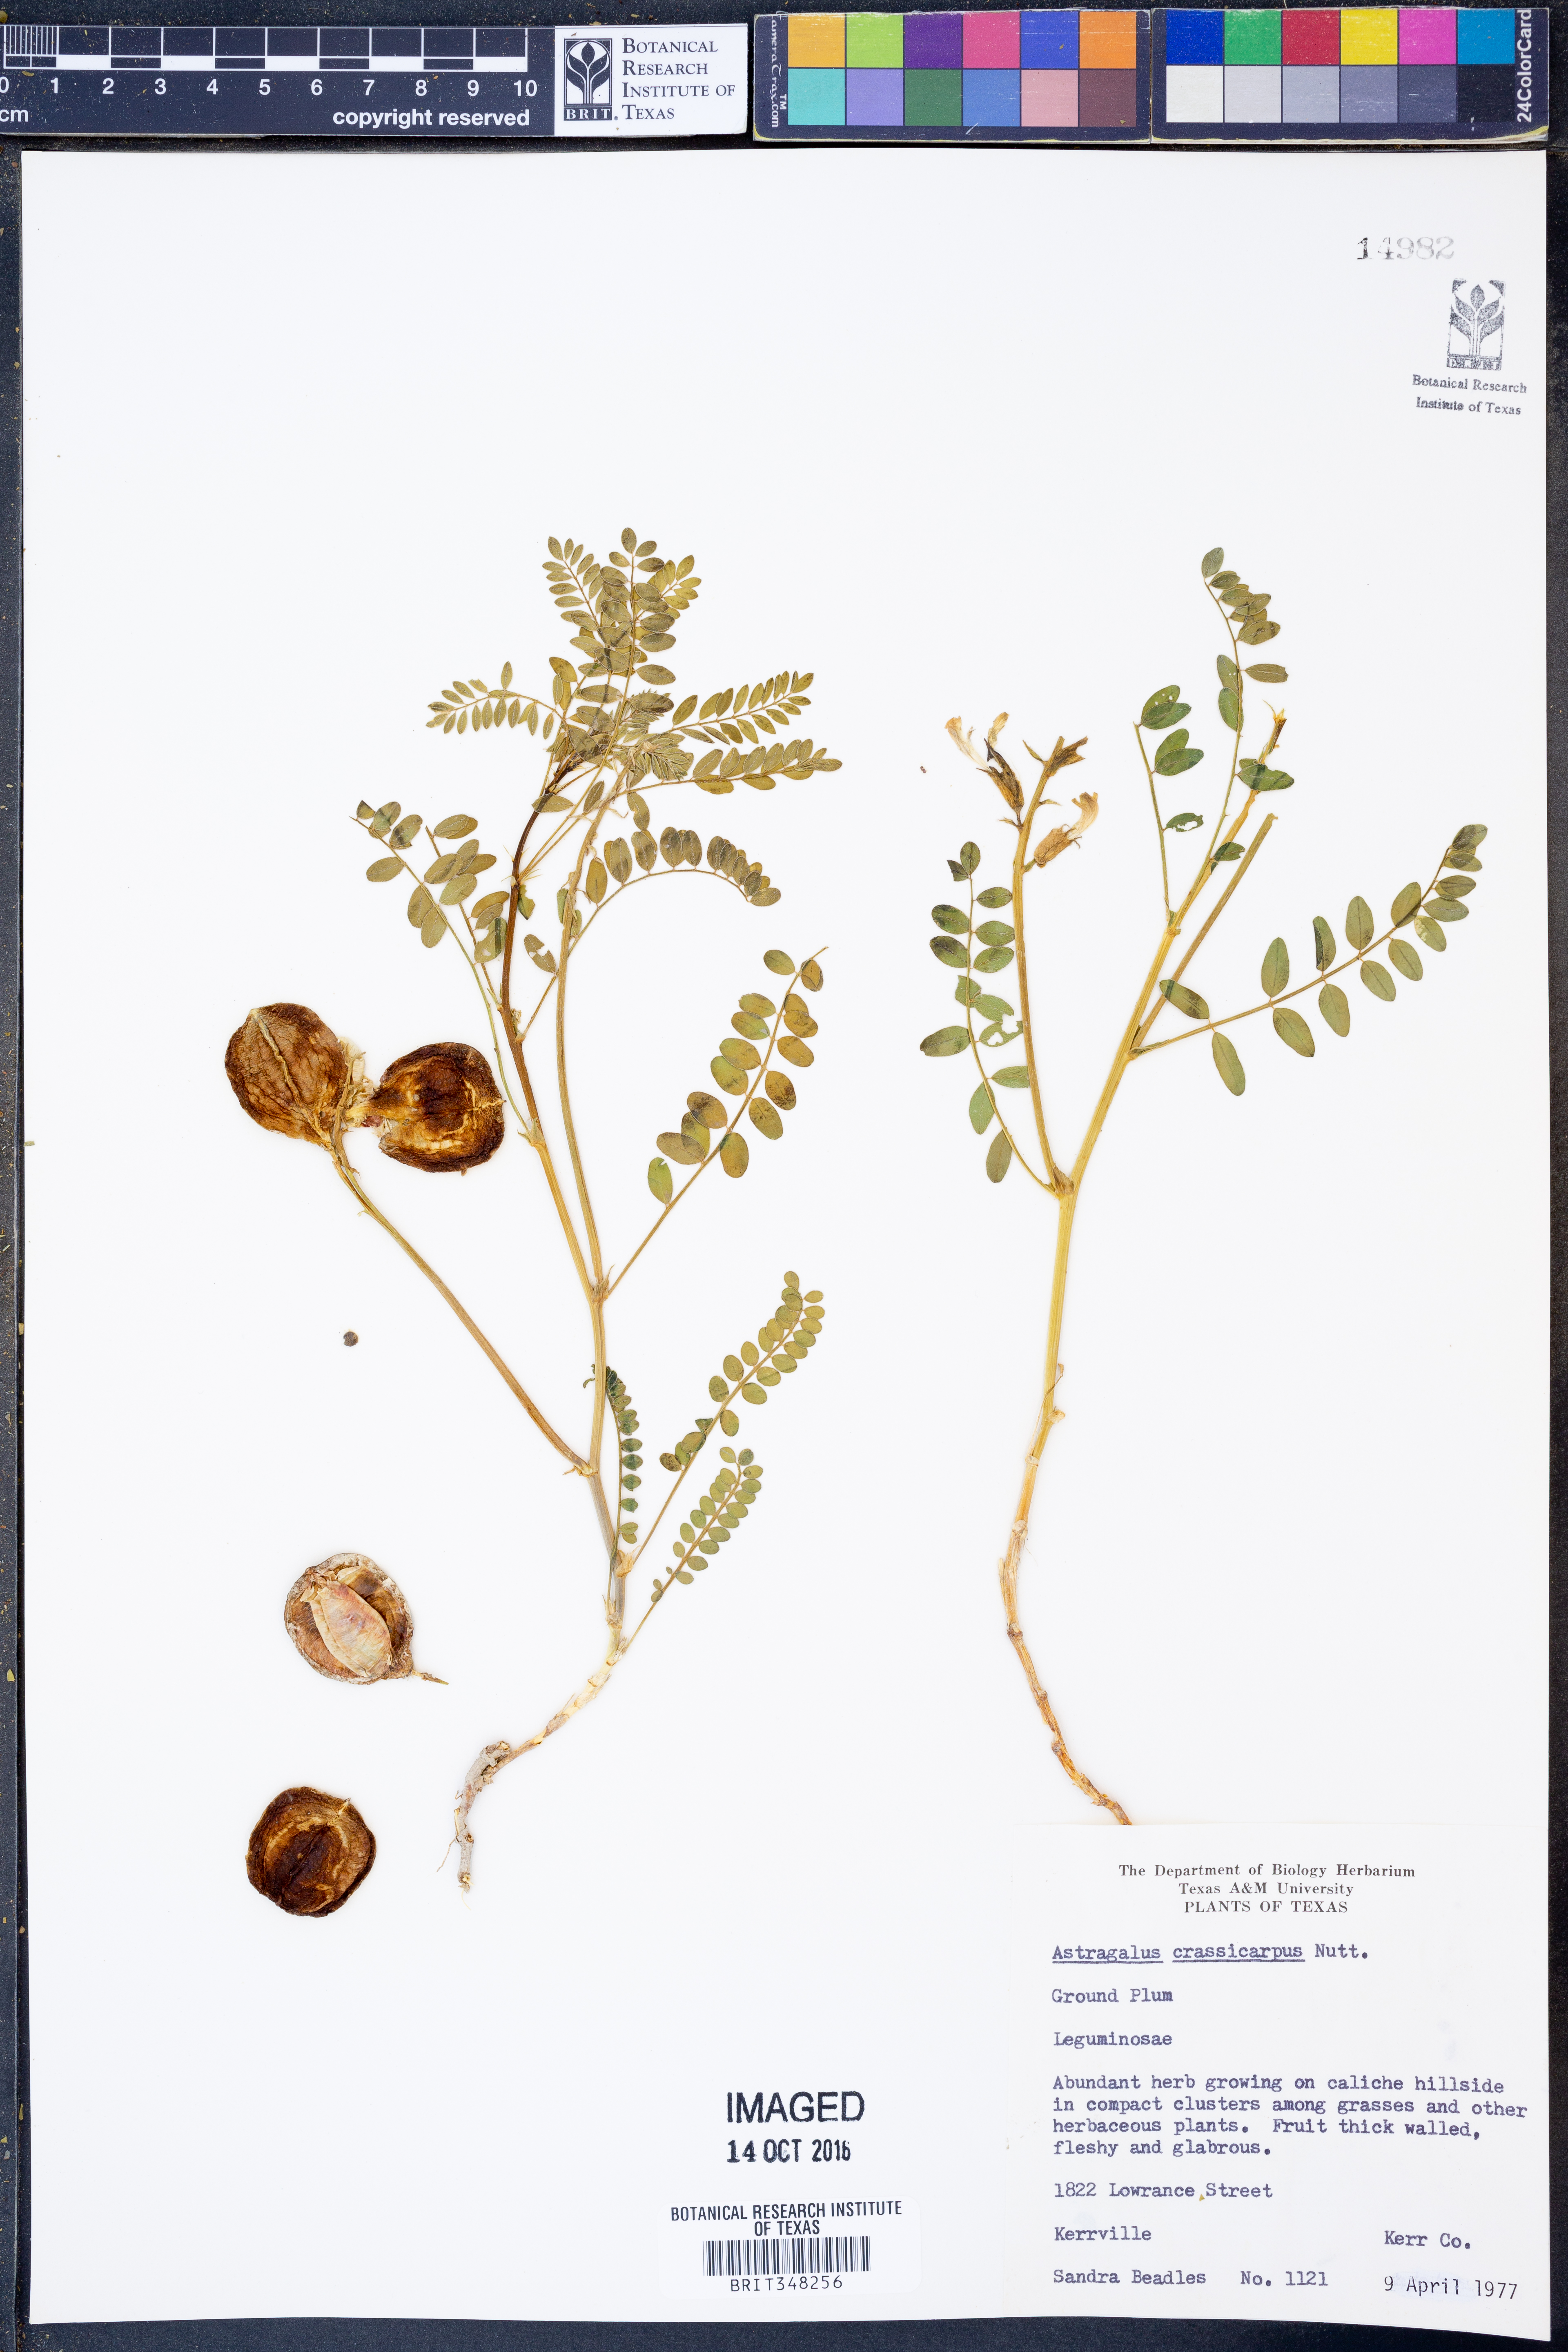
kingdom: Plantae
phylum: Tracheophyta
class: Magnoliopsida
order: Fabales
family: Fabaceae
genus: Astragalus
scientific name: Astragalus crassicarpus
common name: Ground-plum milk-vetch
